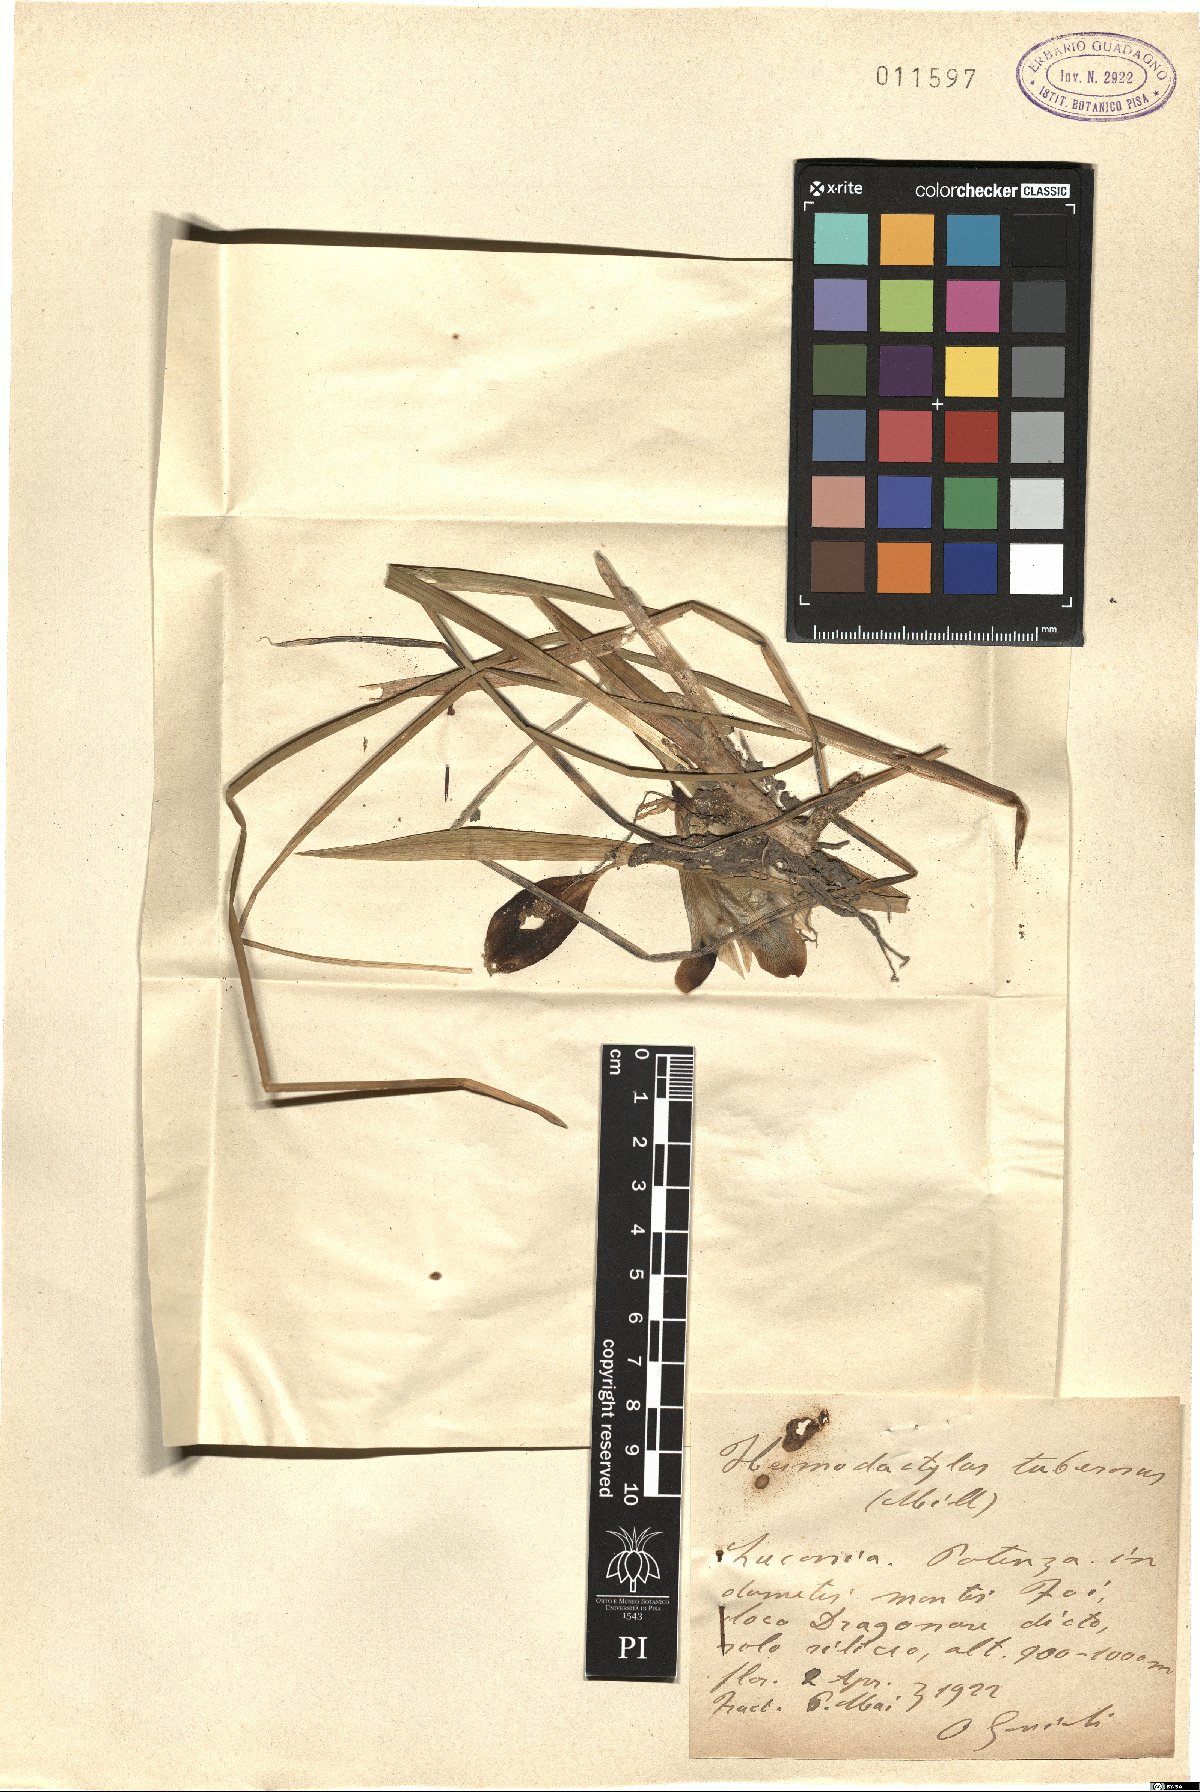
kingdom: Plantae
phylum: Tracheophyta
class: Liliopsida
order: Asparagales
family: Iridaceae
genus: Iris
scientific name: Iris tuberosa
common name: Snake's-head iris
